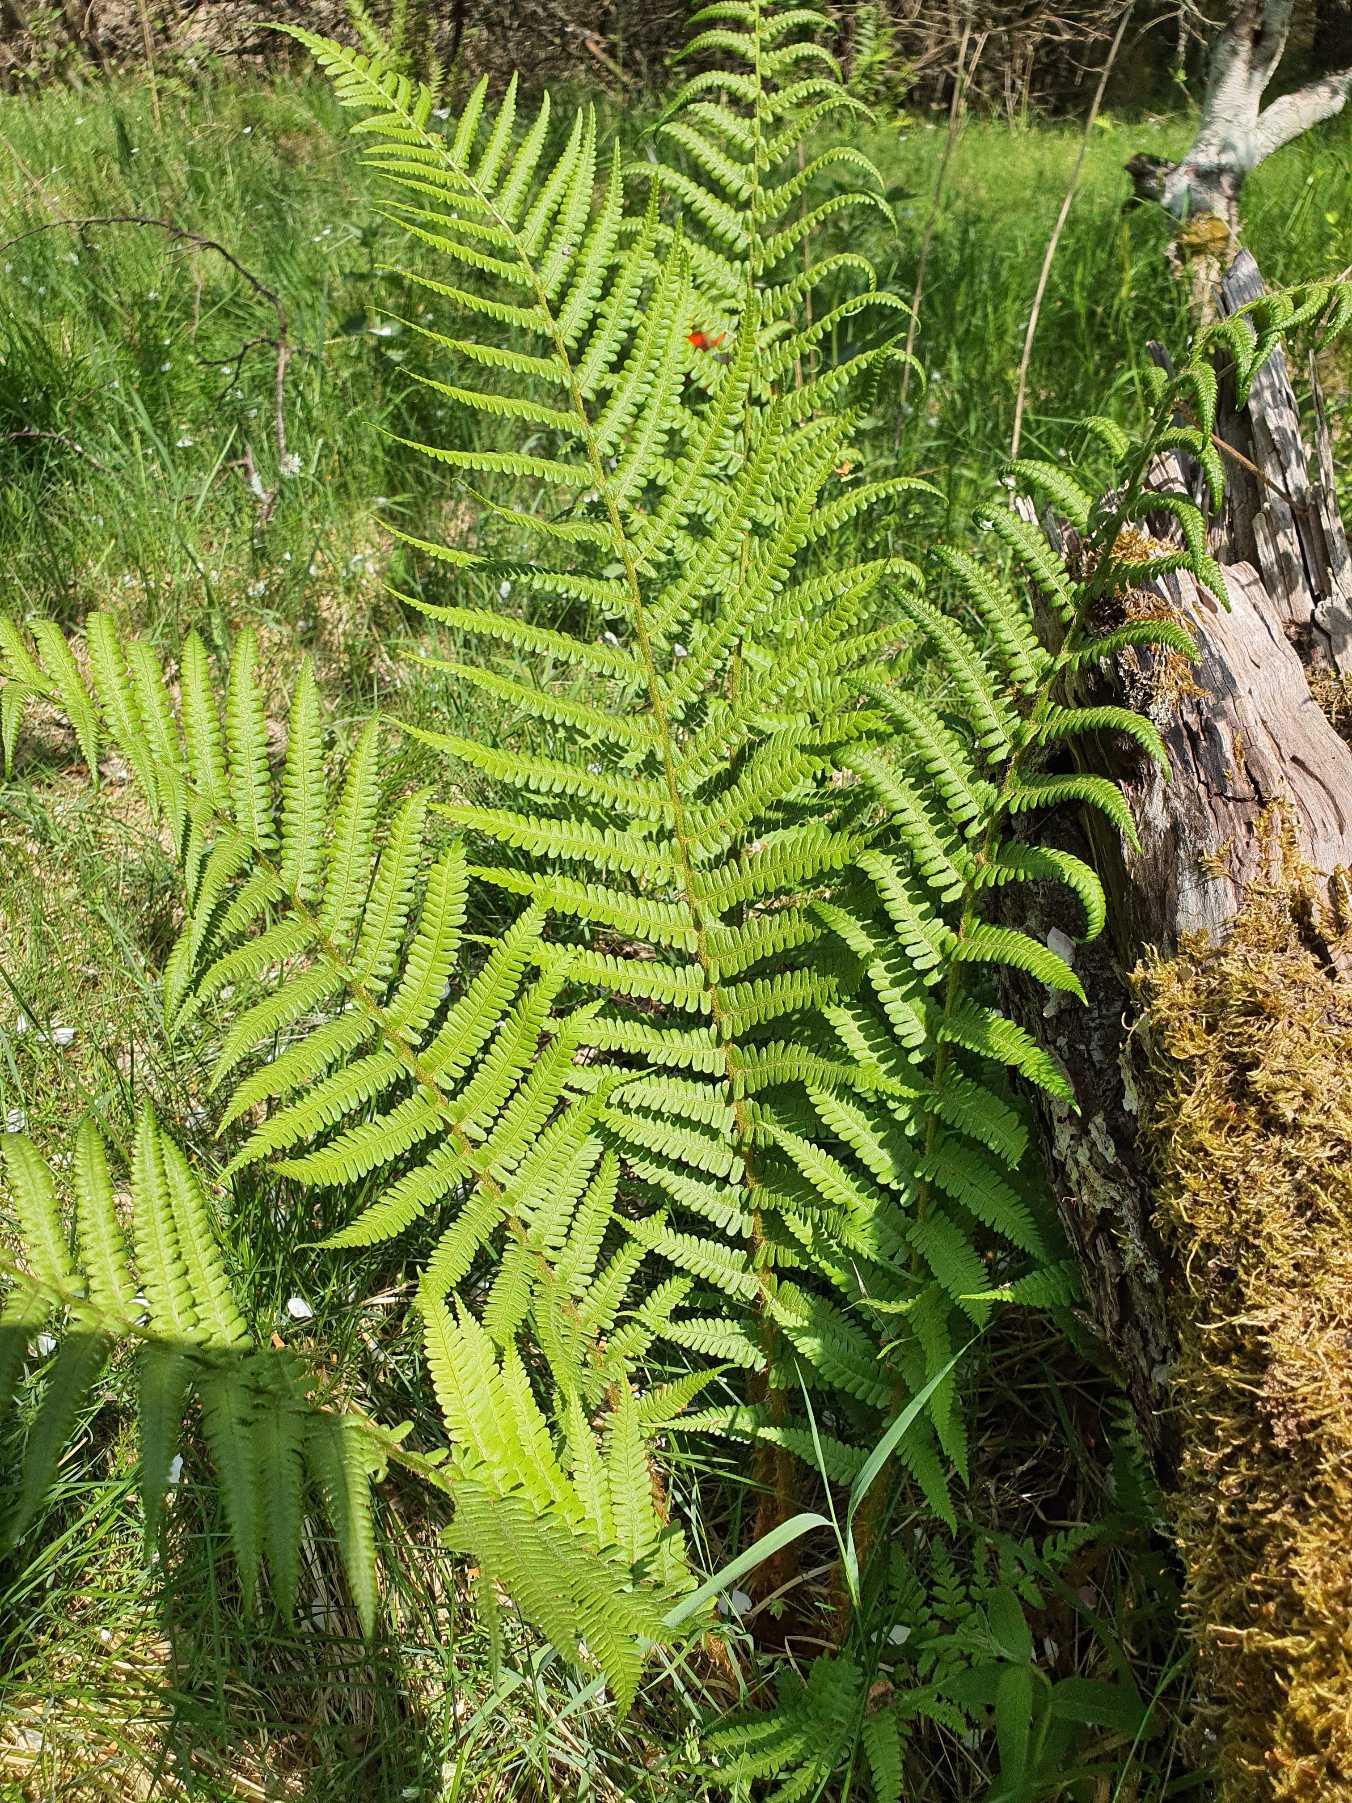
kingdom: Plantae
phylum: Tracheophyta
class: Polypodiopsida
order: Polypodiales
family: Dryopteridaceae
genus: Dryopteris
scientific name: Dryopteris filix-mas
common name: Almindelig mangeløv
